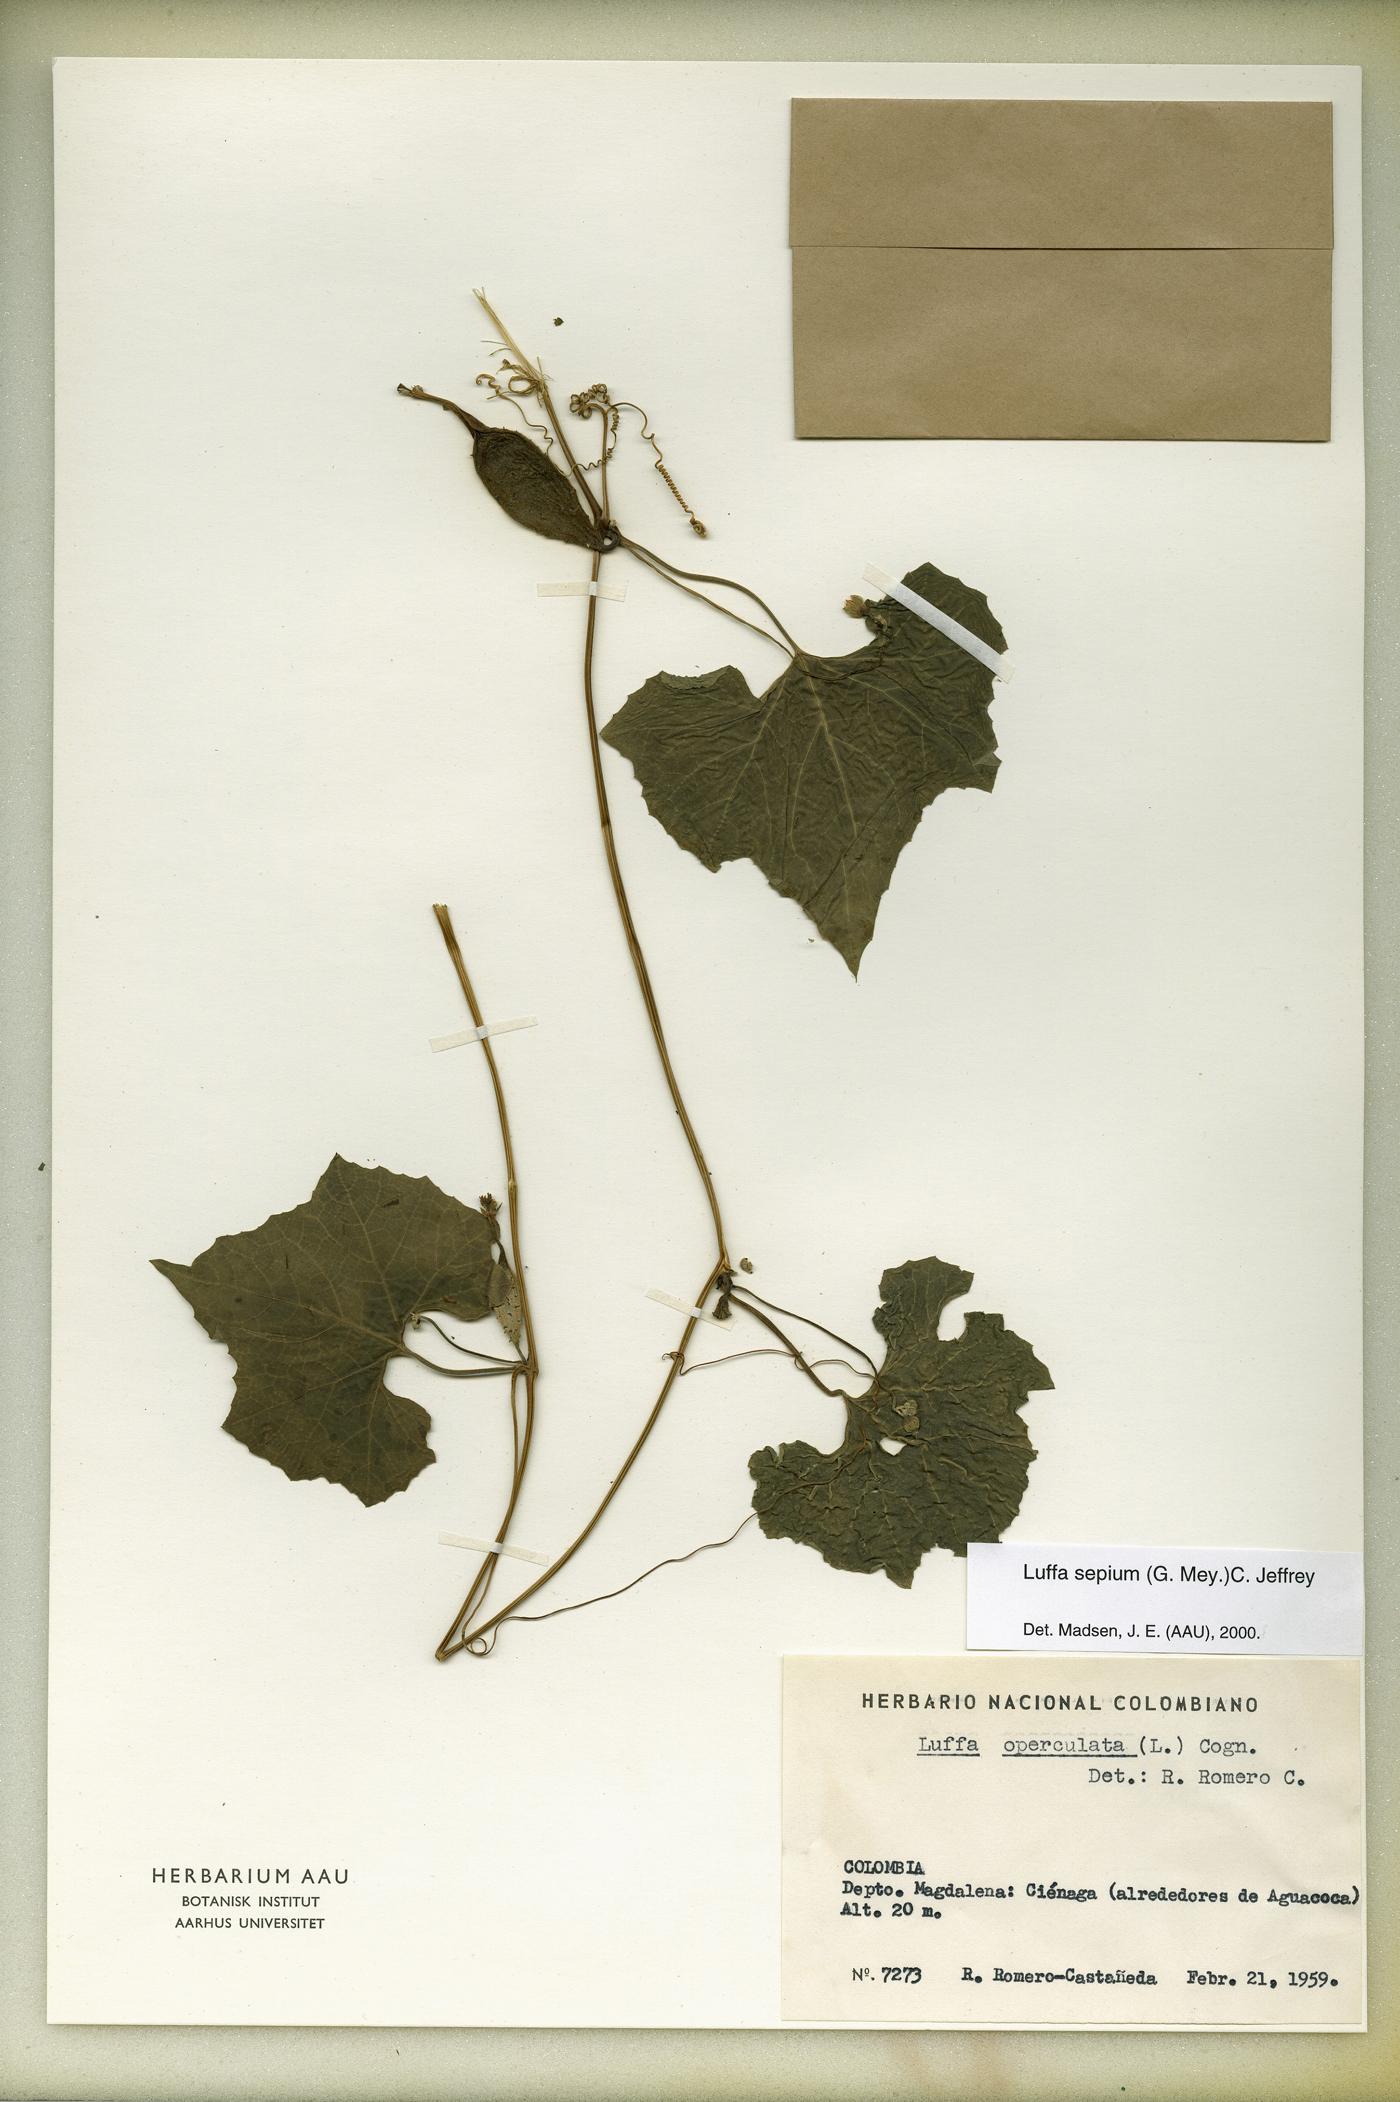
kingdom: Plantae
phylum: Tracheophyta
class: Magnoliopsida
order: Cucurbitales
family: Cucurbitaceae
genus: Luffa
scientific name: Luffa operculata
